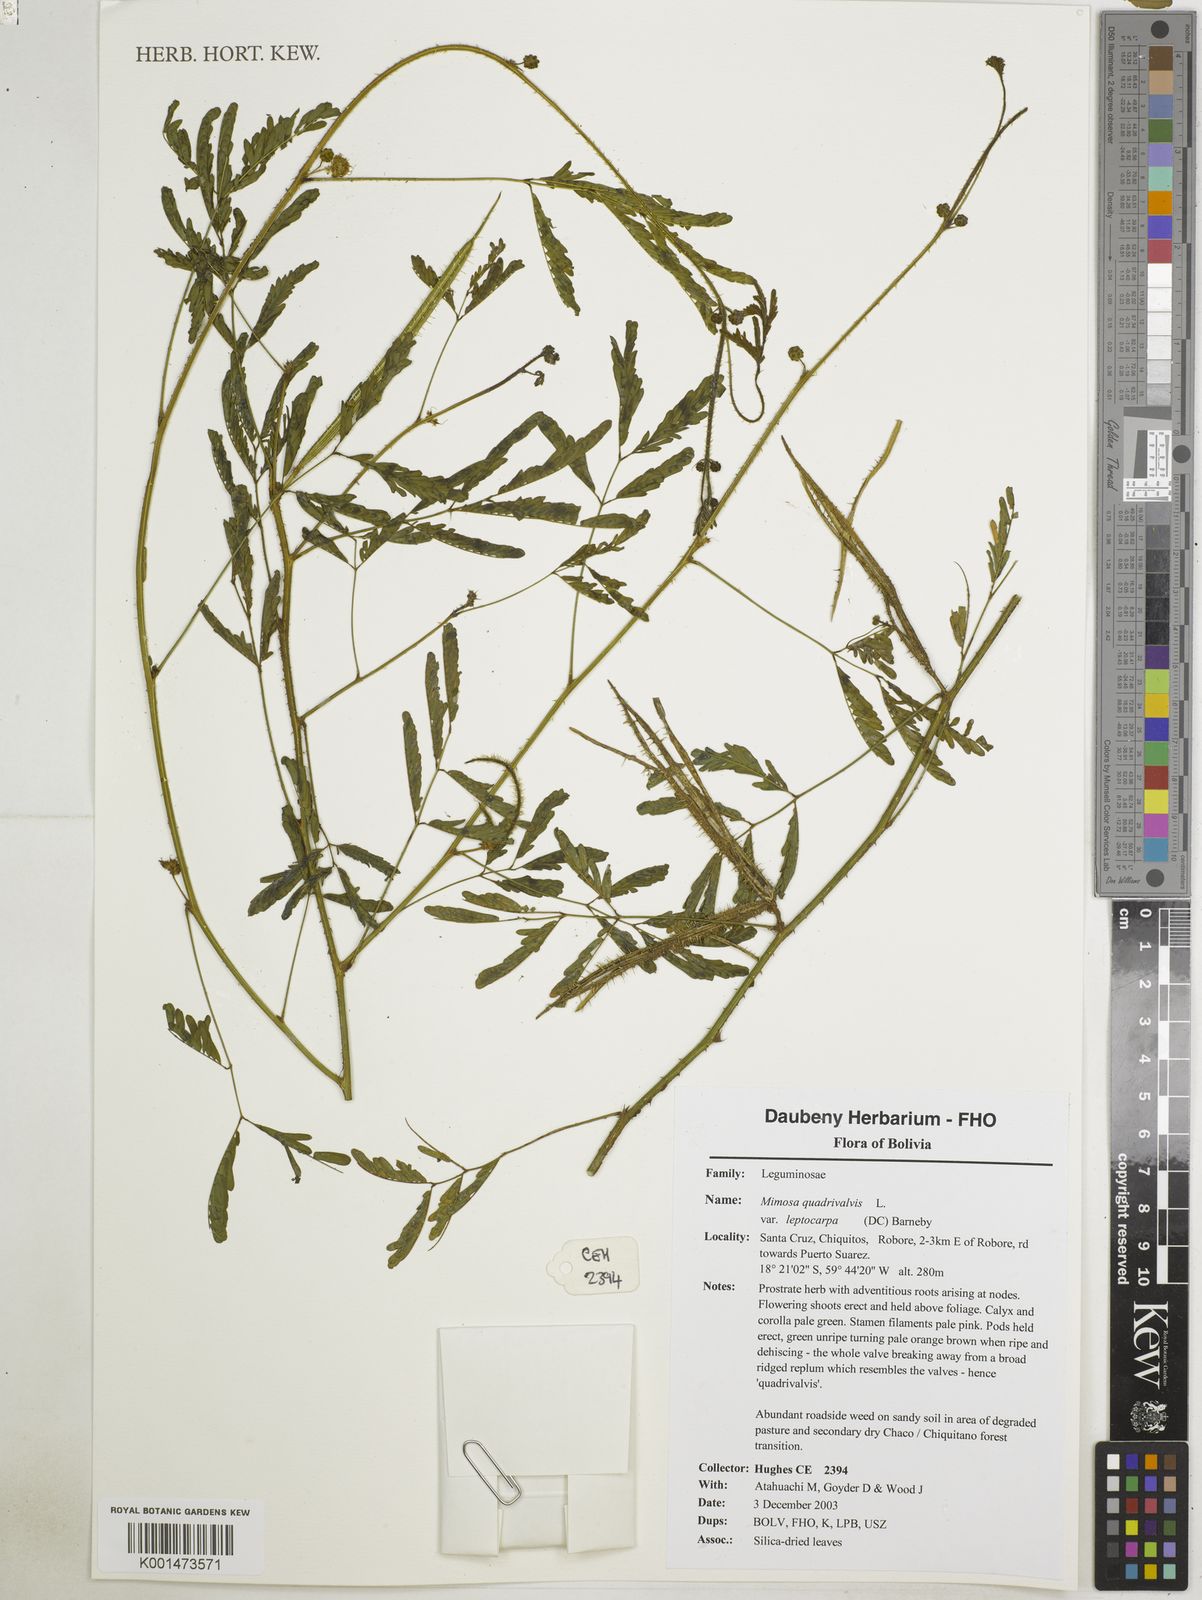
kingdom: Plantae
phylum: Tracheophyta
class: Magnoliopsida
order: Fabales
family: Fabaceae
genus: Mimosa
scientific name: Mimosa candollei
